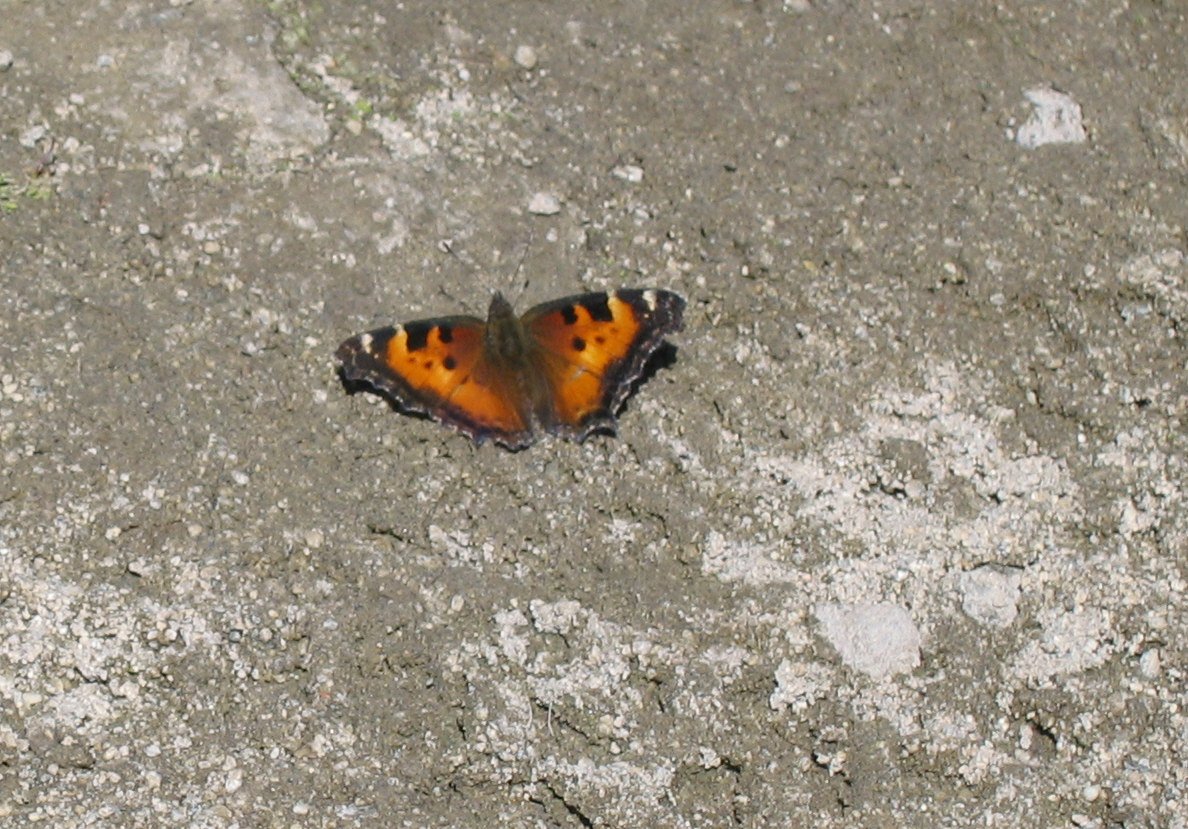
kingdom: Animalia
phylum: Arthropoda
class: Insecta
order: Lepidoptera
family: Nymphalidae
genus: Nymphalis
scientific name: Nymphalis californica
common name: California Tortoiseshell
